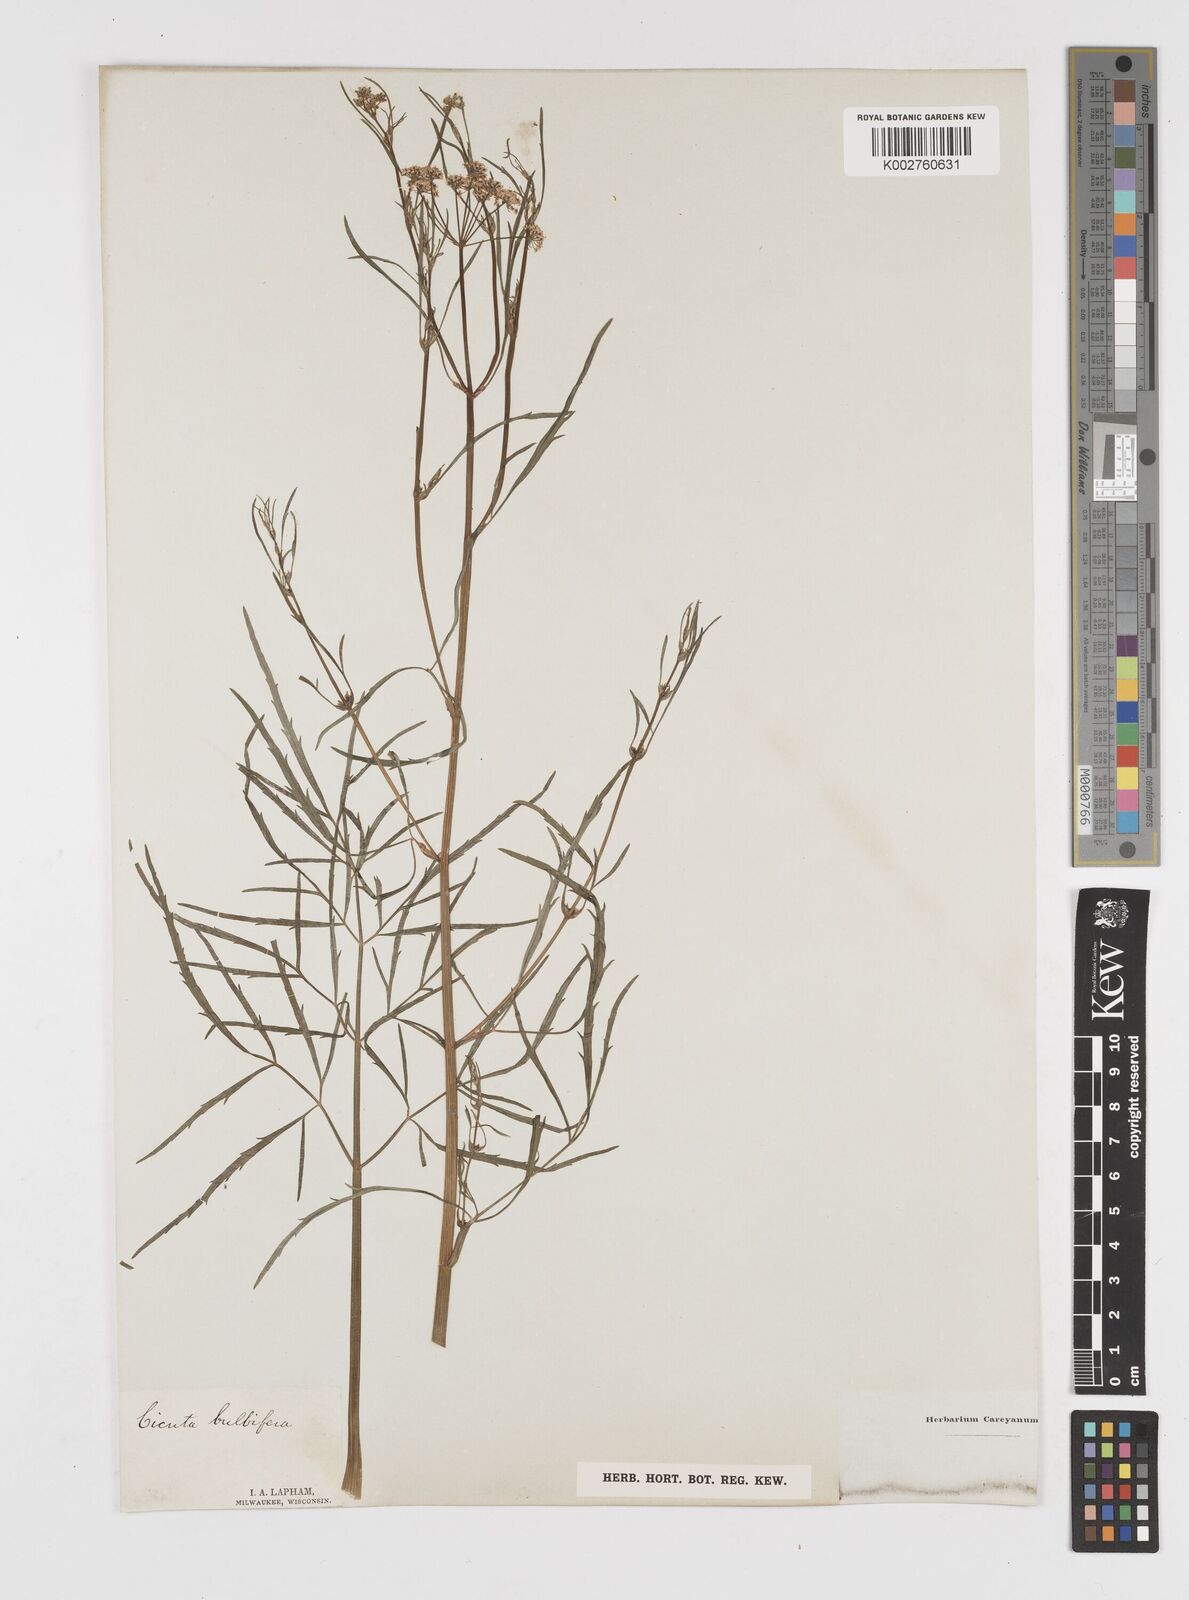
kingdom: Plantae
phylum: Tracheophyta
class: Magnoliopsida
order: Apiales
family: Apiaceae
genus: Cicuta
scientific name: Cicuta bulbifera
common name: Bulb-bearing water-hemlock
